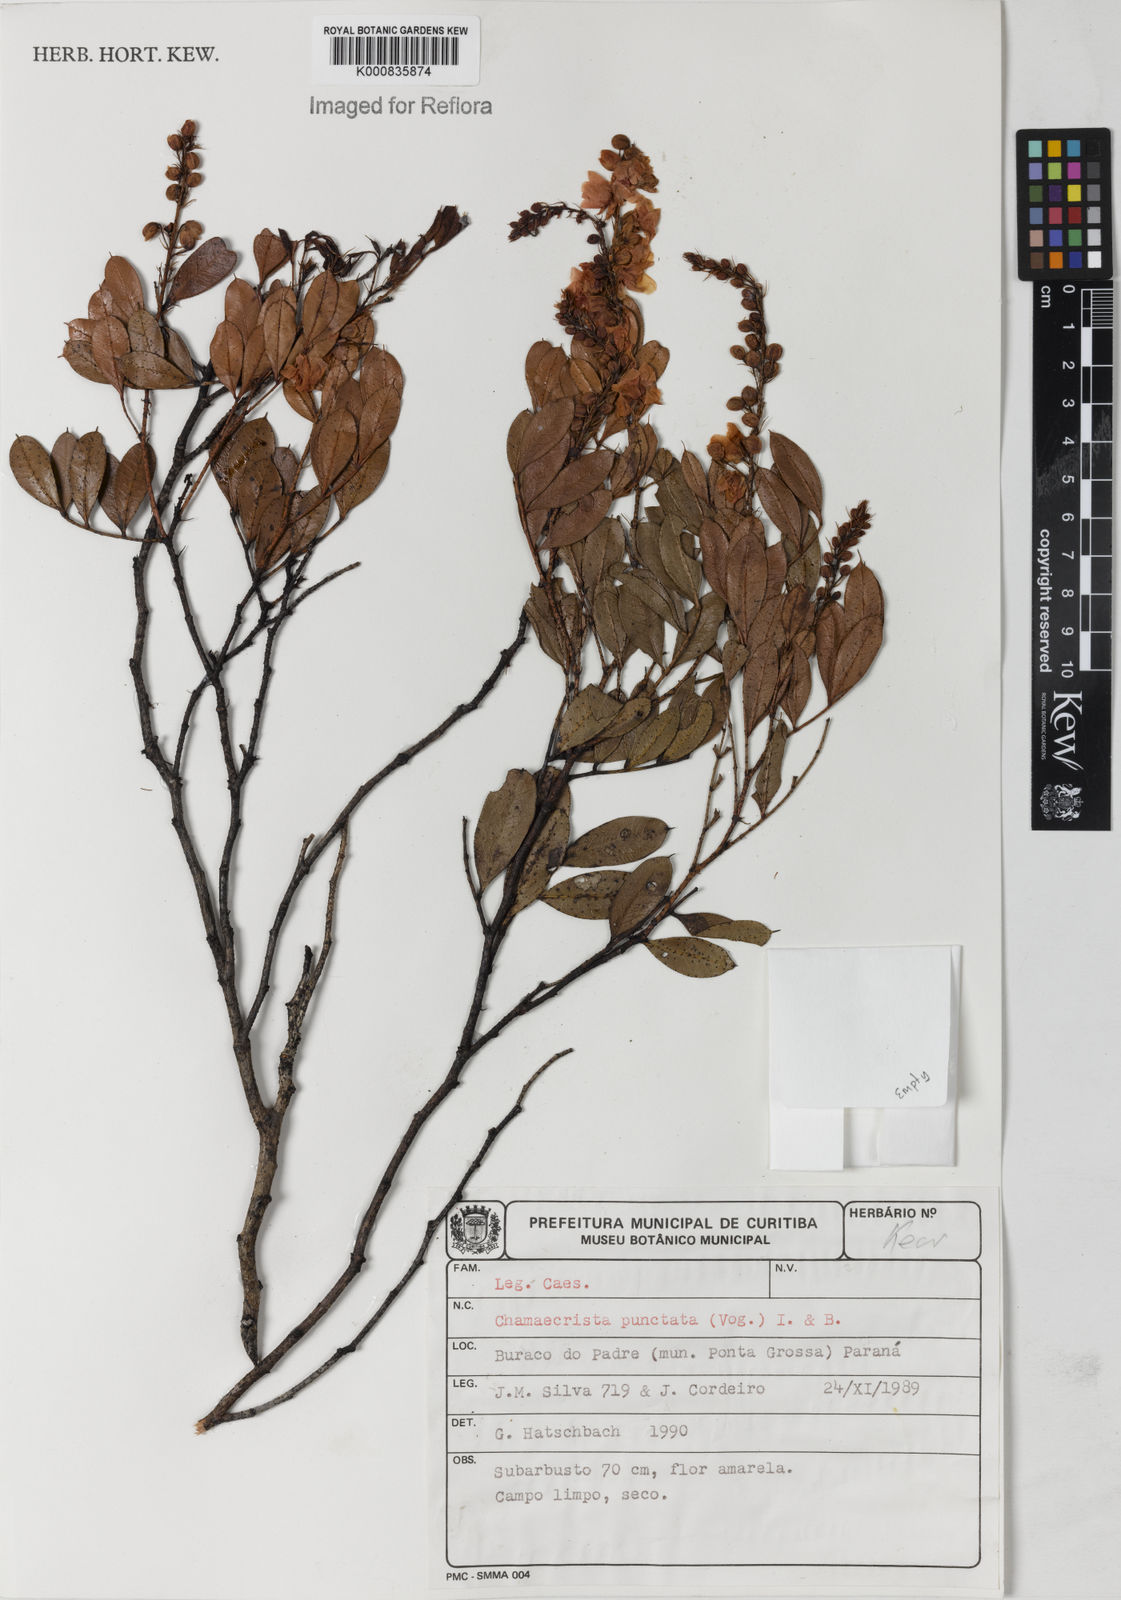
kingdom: Plantae
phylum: Tracheophyta
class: Magnoliopsida
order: Fabales
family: Fabaceae
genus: Chamaecrista
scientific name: Chamaecrista punctata
